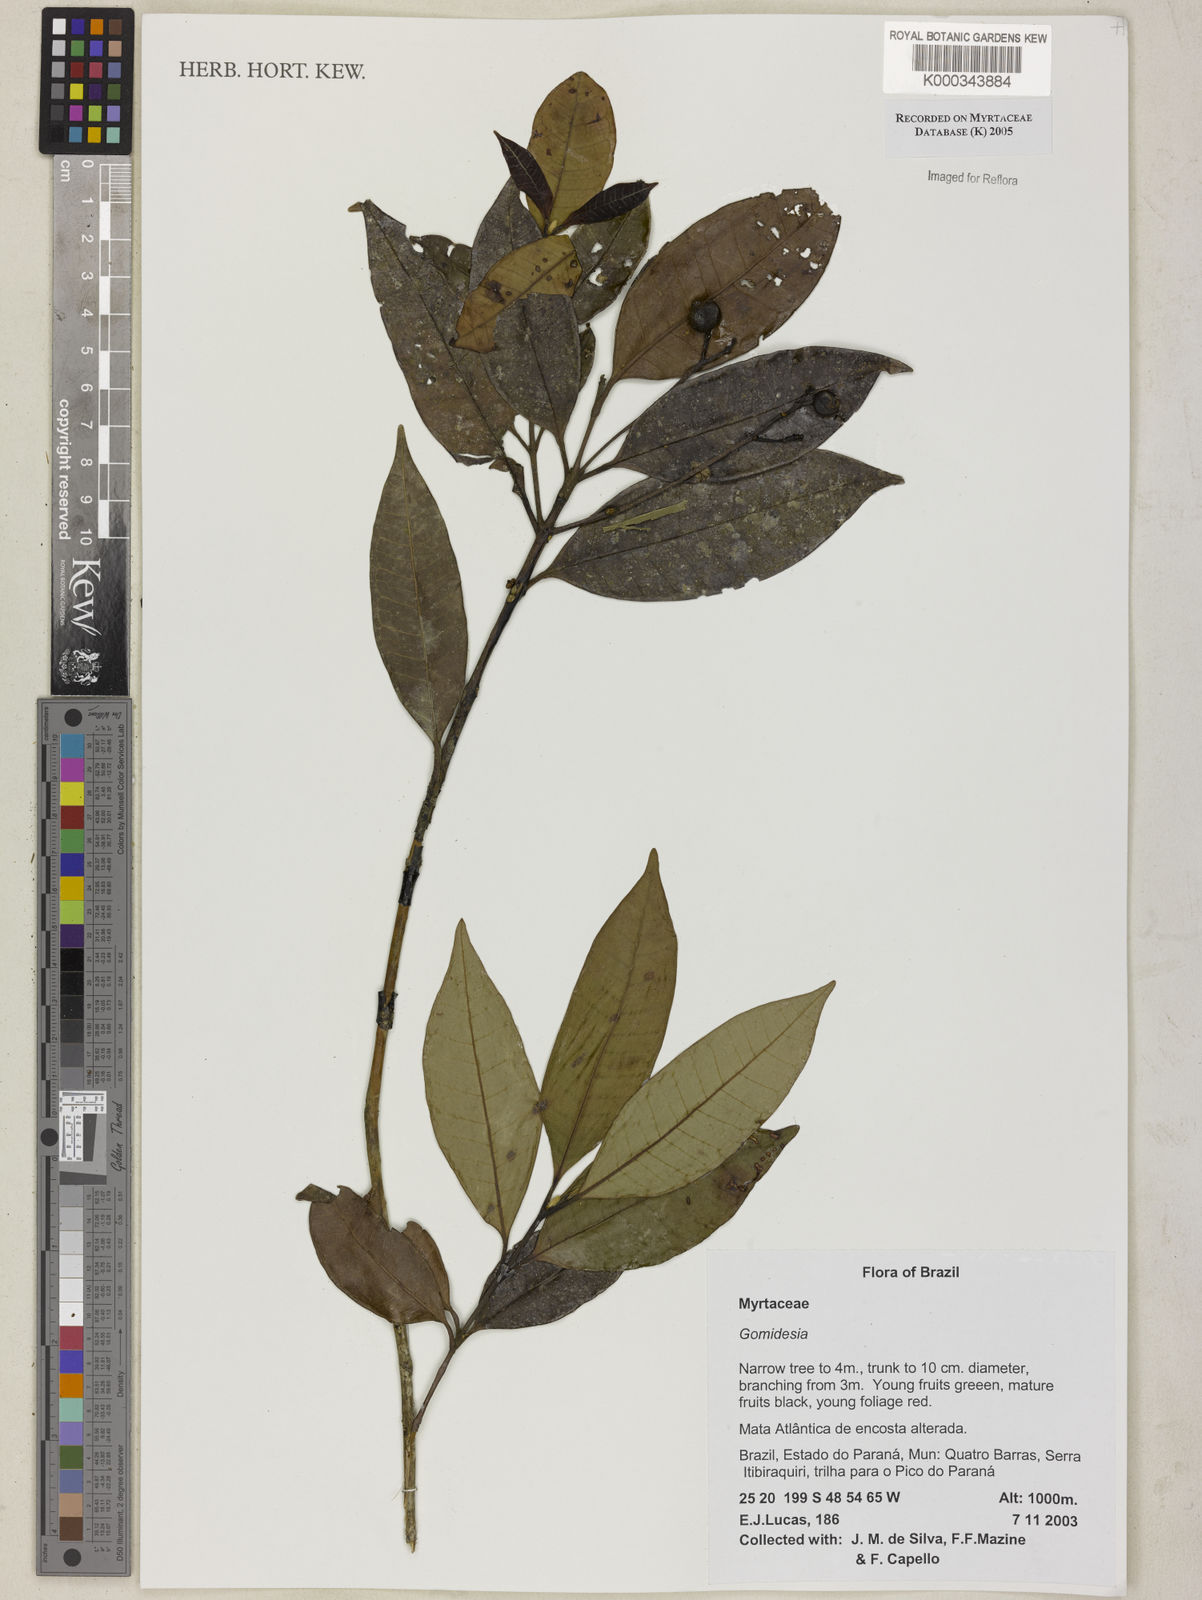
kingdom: Plantae
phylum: Tracheophyta
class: Magnoliopsida
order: Myrtales
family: Myrtaceae
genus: Myrcia
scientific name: Myrcia
